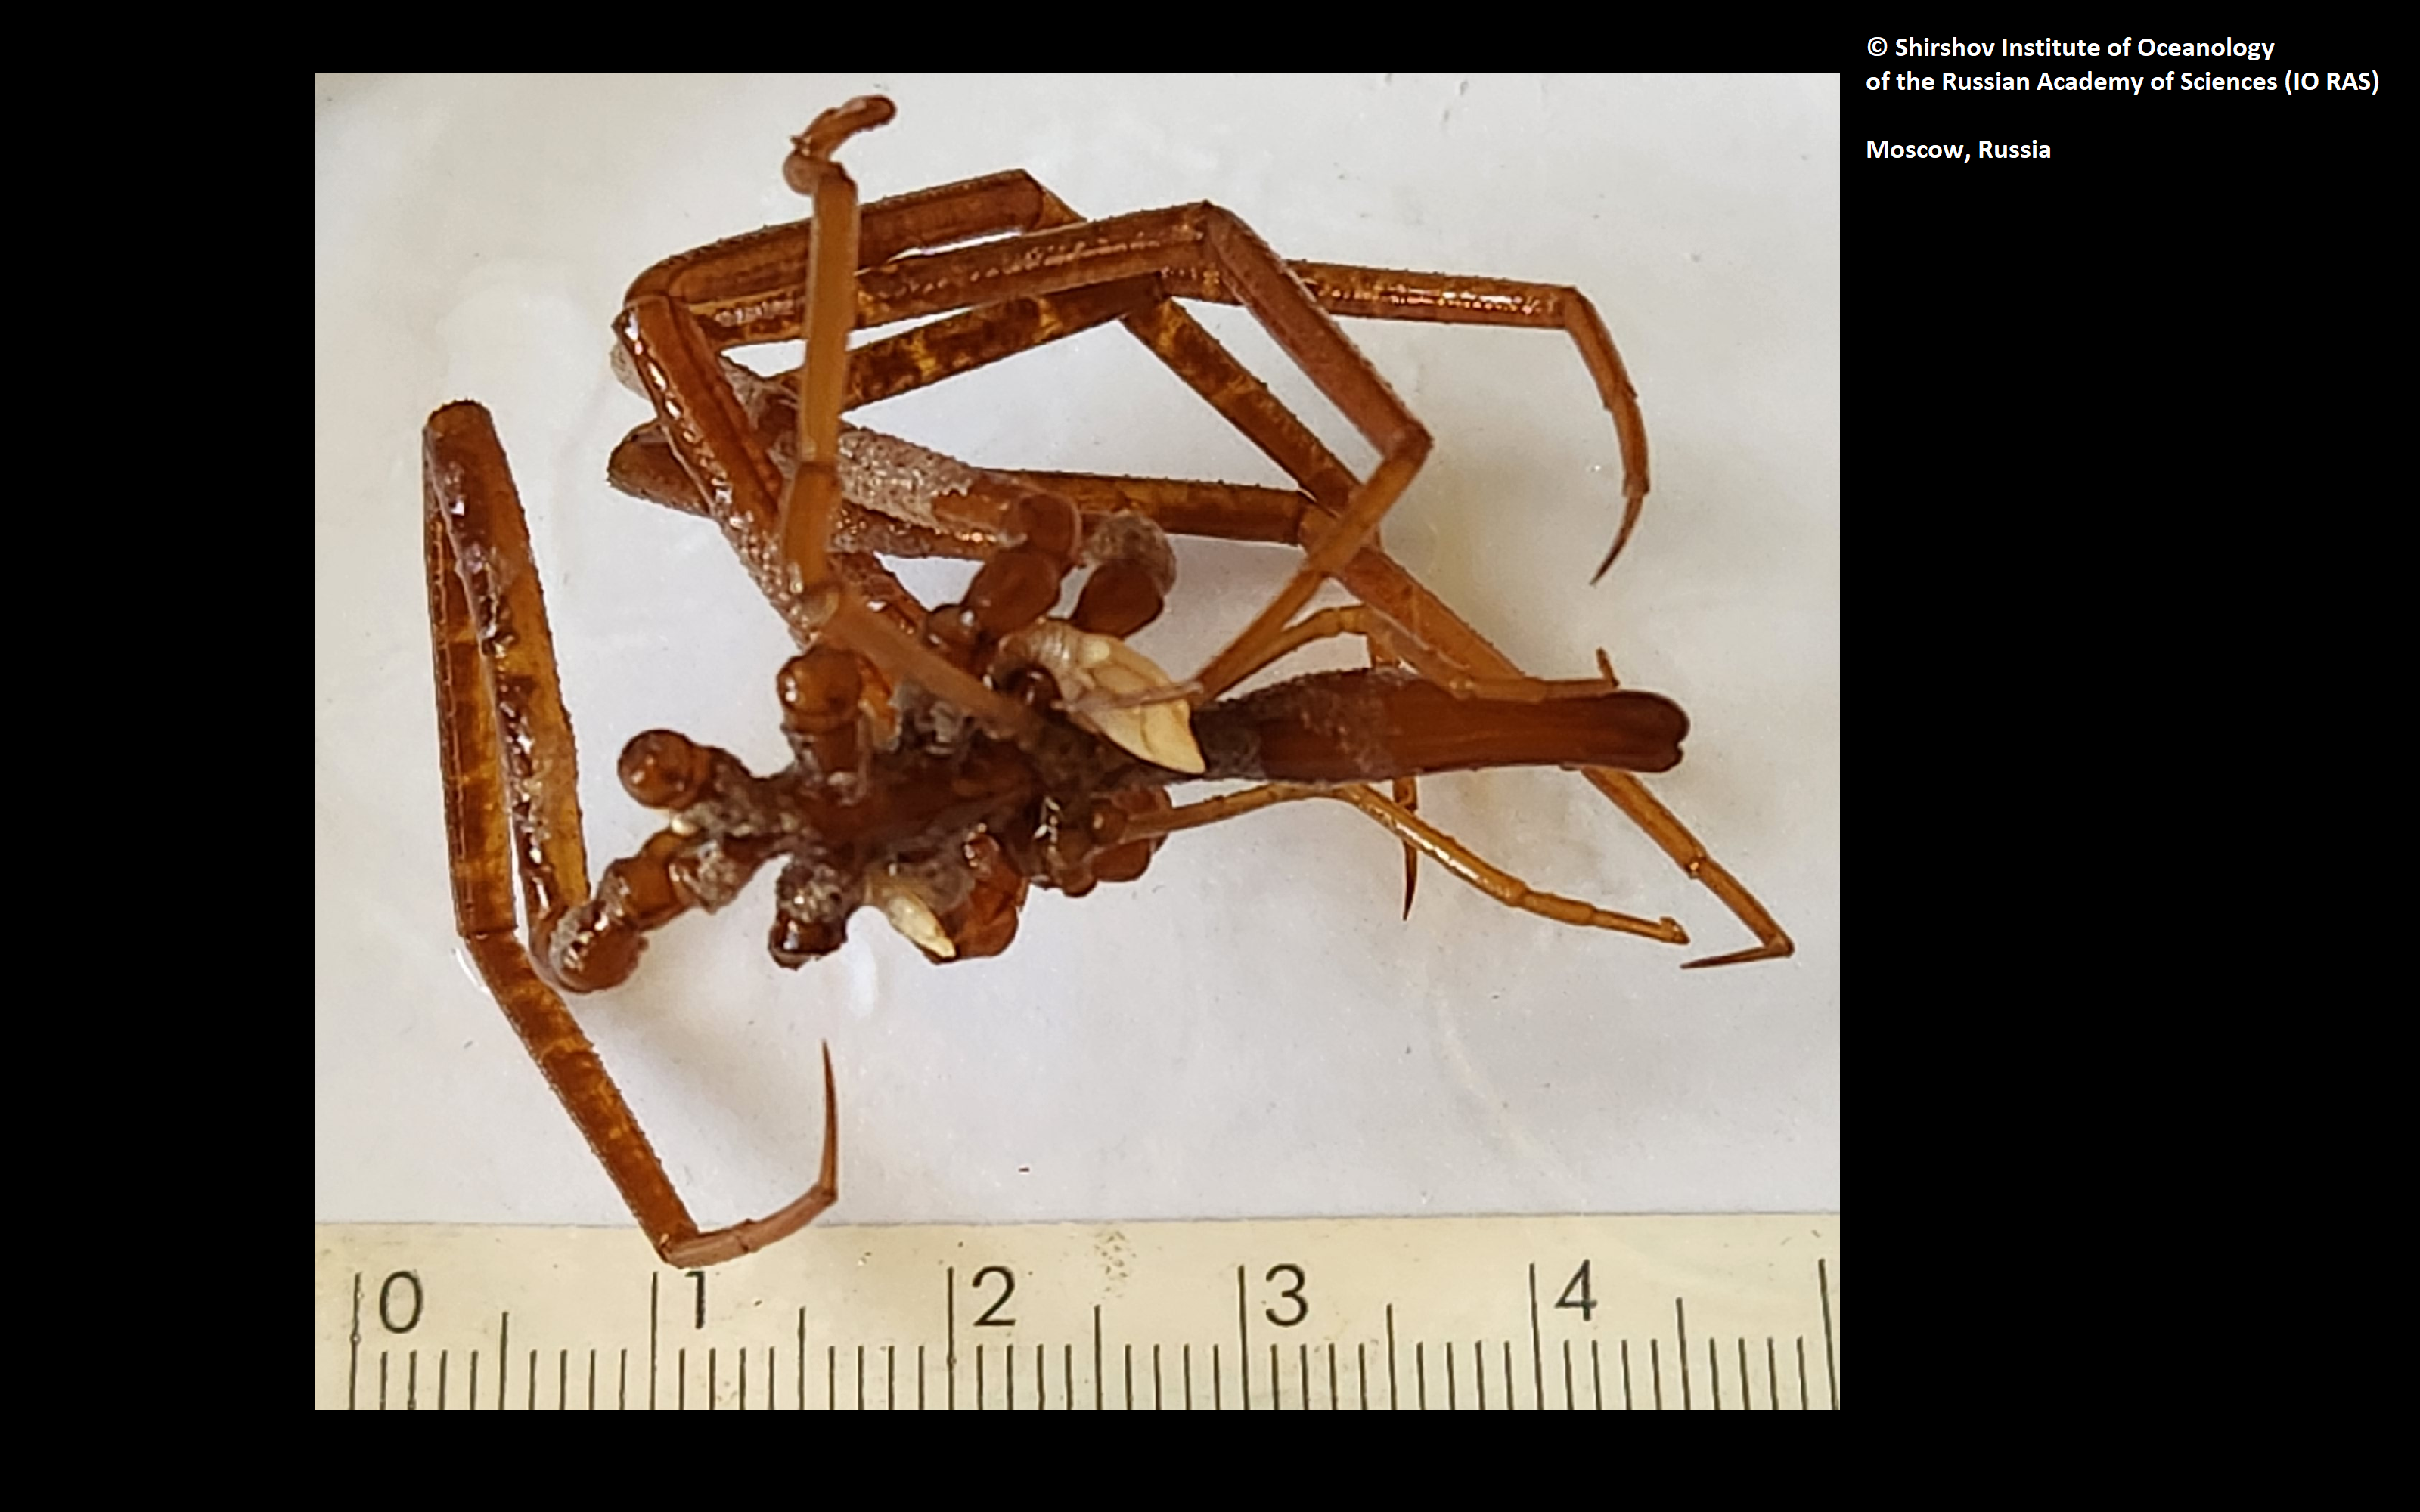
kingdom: Animalia
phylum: Arthropoda
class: Pycnogonida
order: Pantopoda
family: Colossendeidae
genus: Colossendeis
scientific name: Colossendeis perforata
